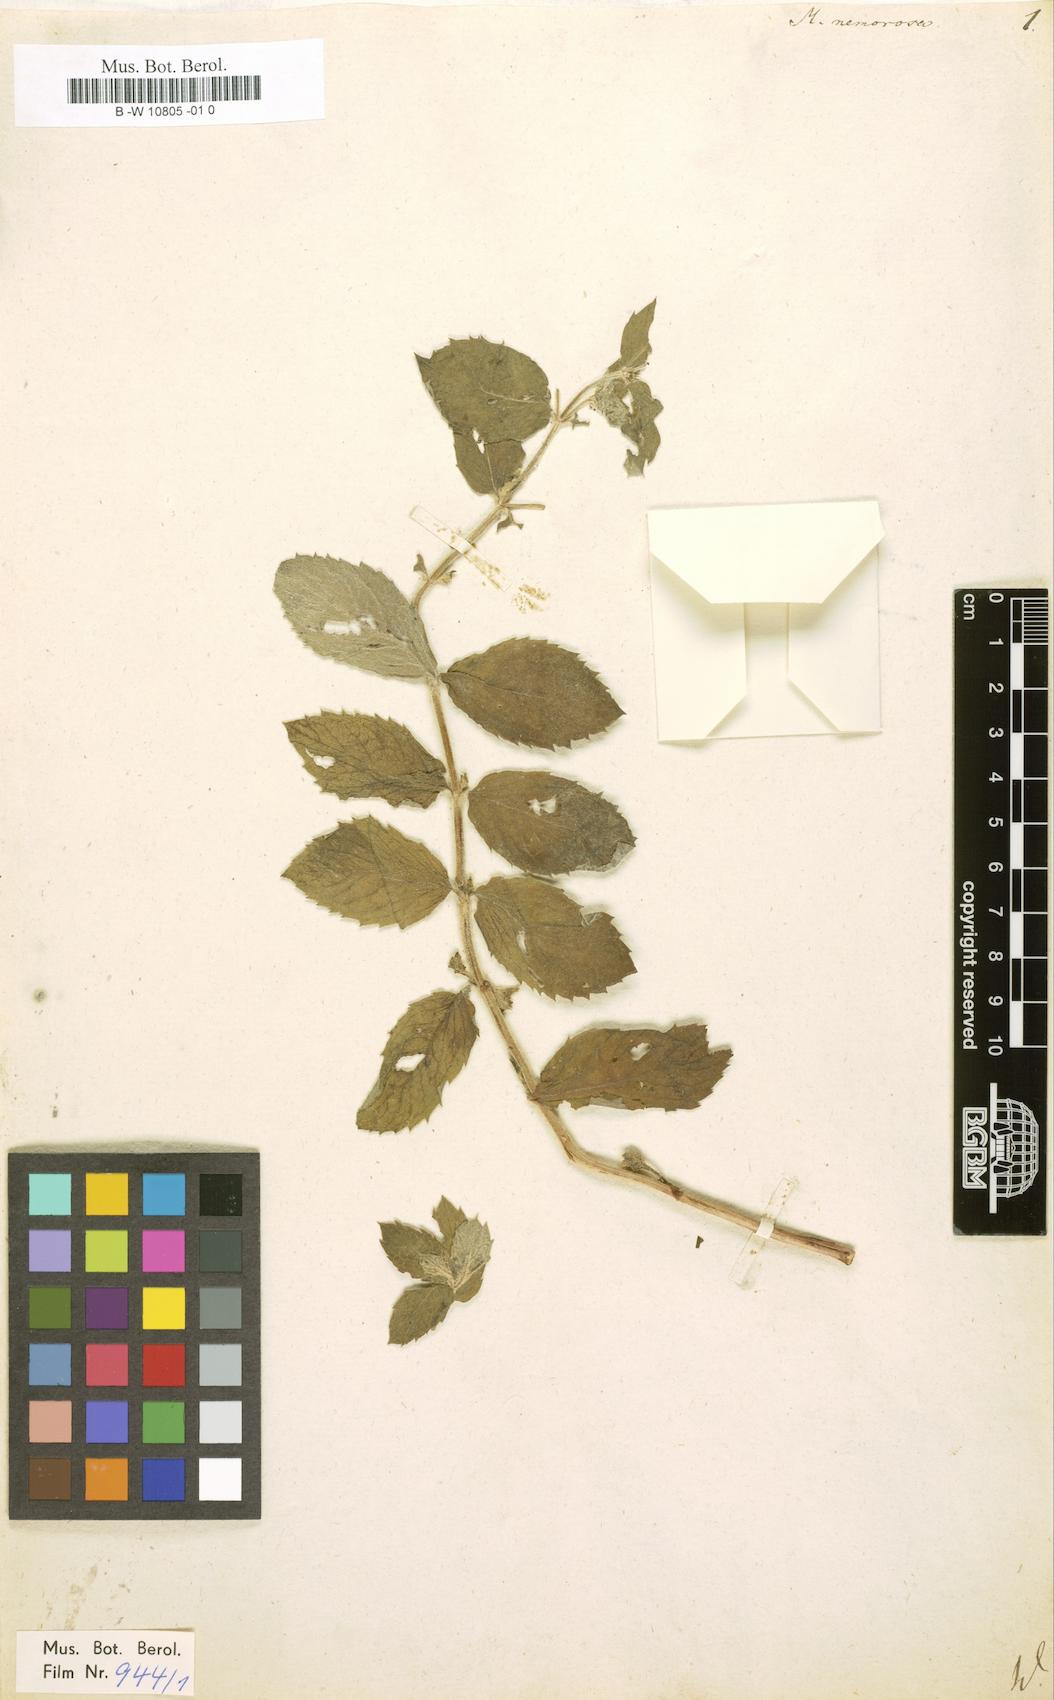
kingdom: Plantae
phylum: Tracheophyta
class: Magnoliopsida
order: Lamiales
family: Lamiaceae
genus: Mentha
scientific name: Mentha
